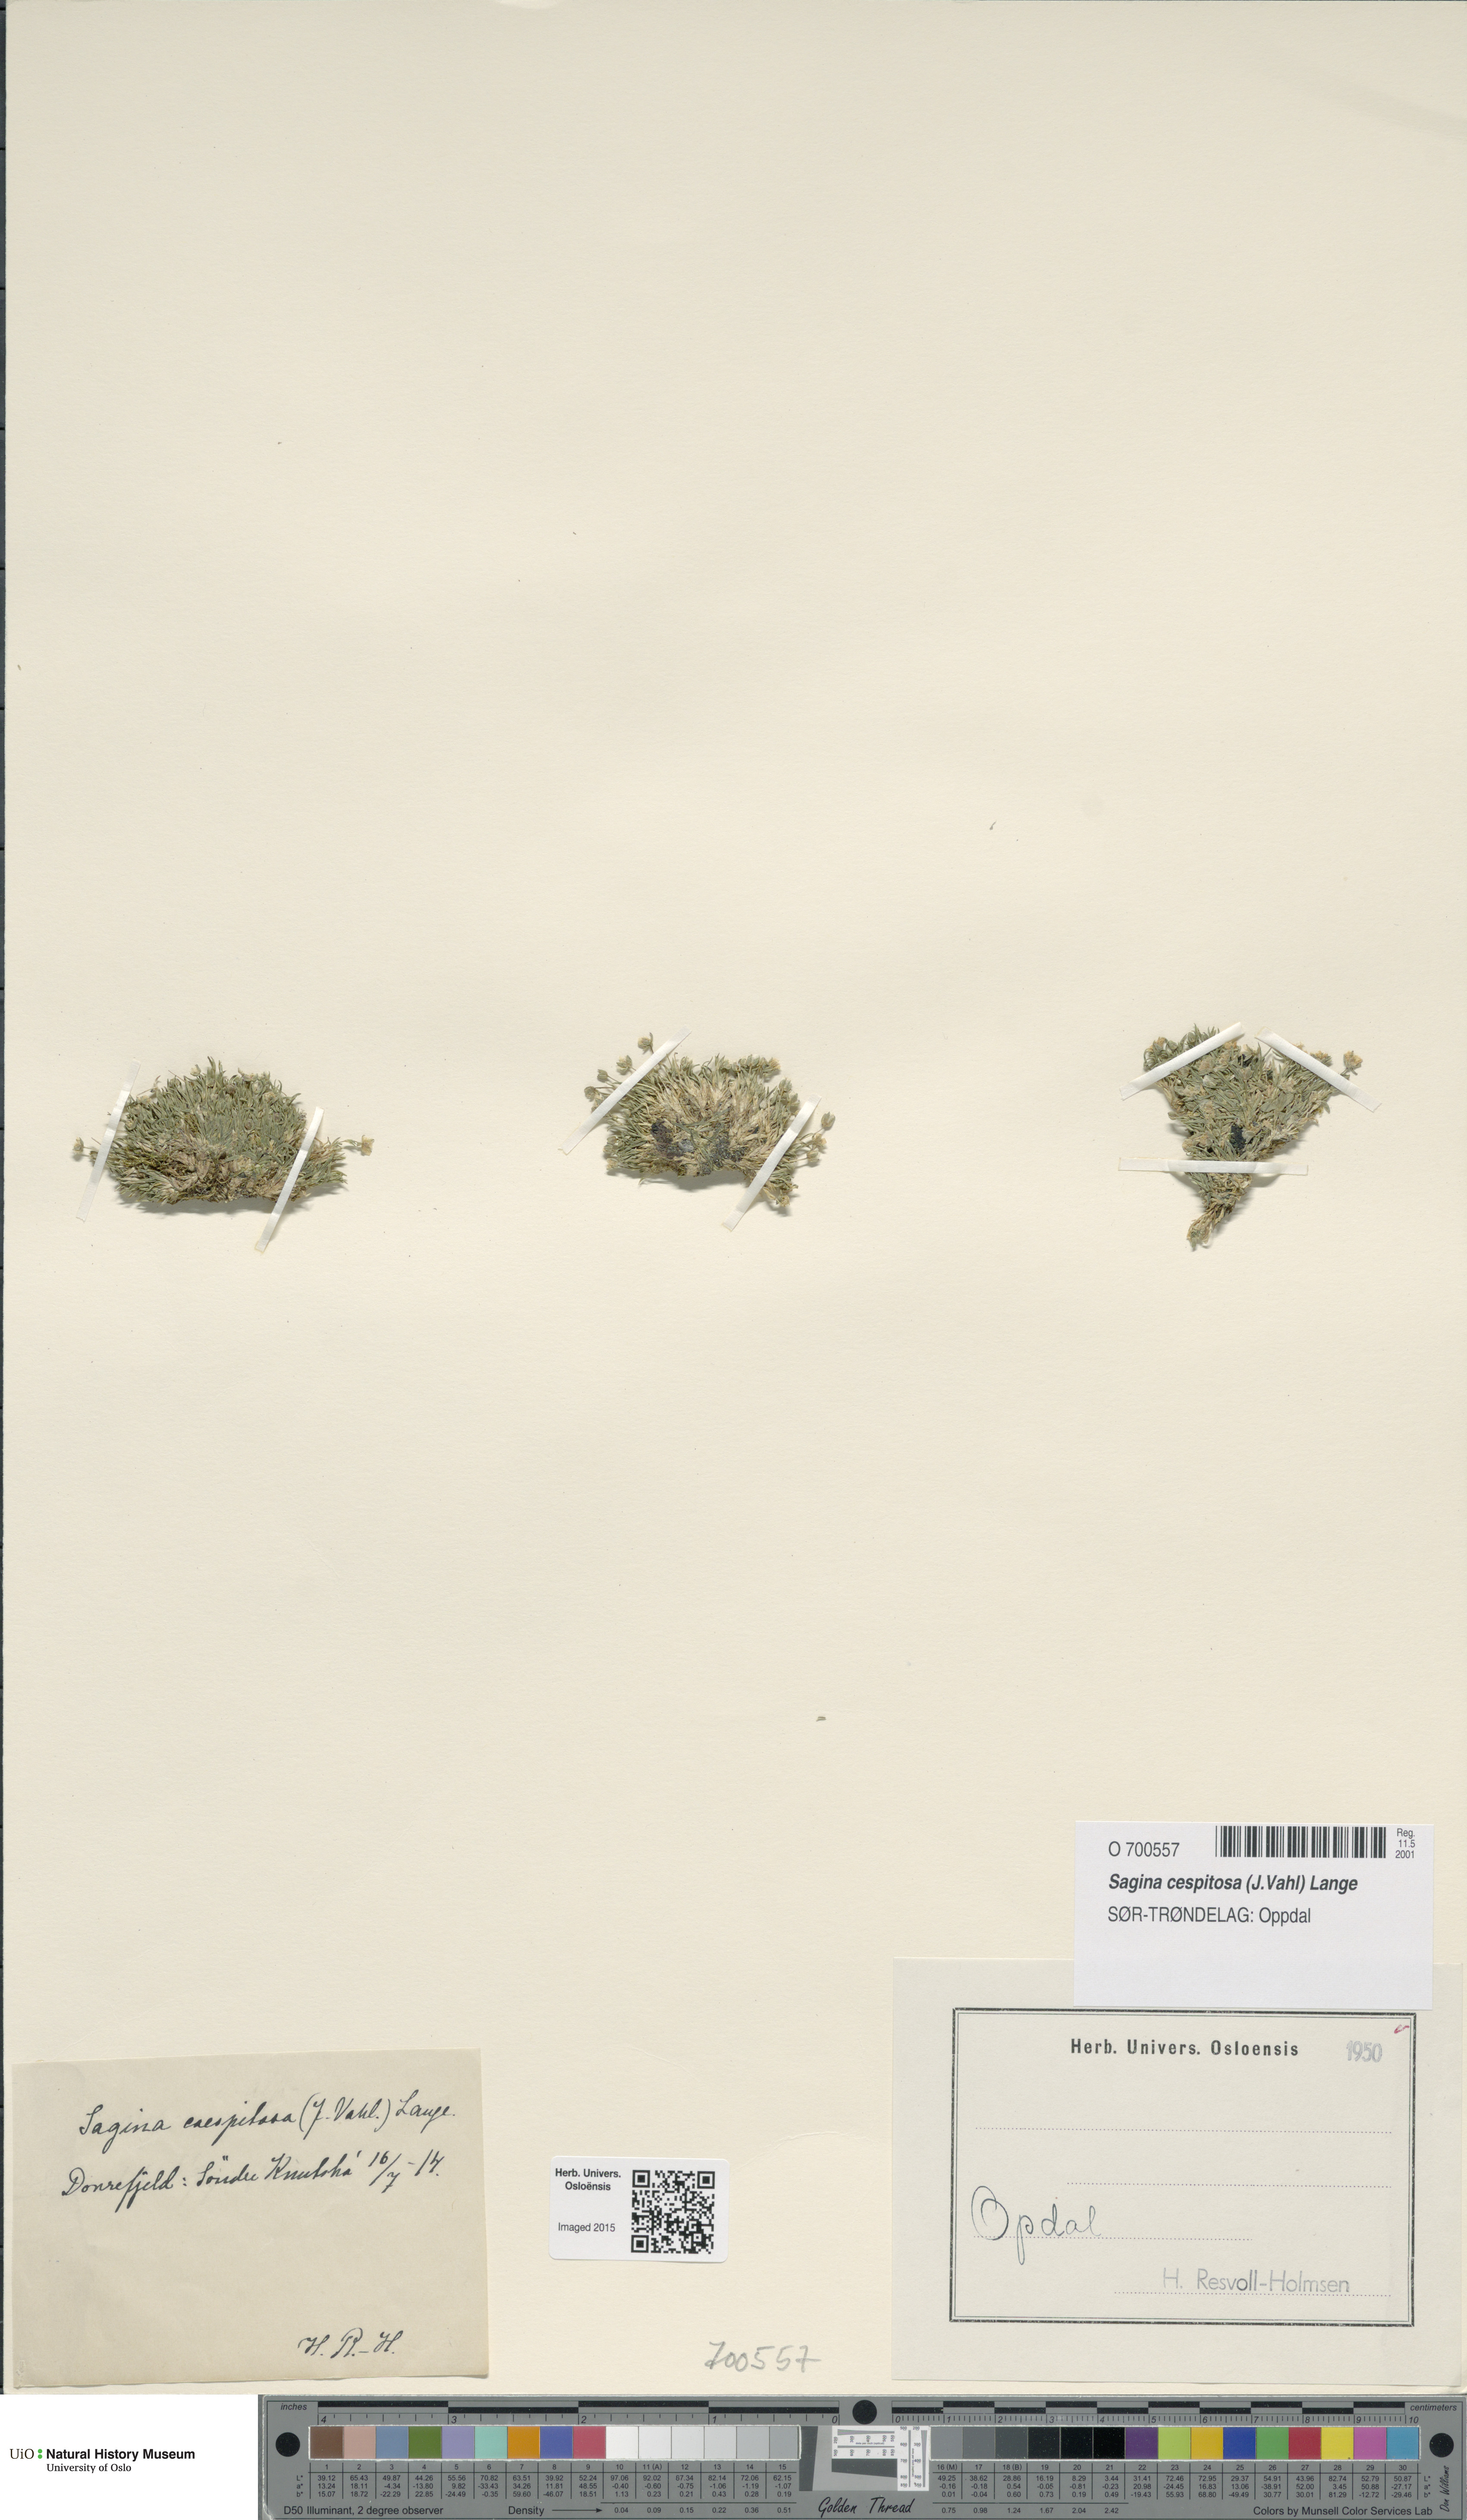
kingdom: Plantae
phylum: Tracheophyta
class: Magnoliopsida
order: Caryophyllales
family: Caryophyllaceae
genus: Sagina
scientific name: Sagina caespitosa
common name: Tufted pearlwort
